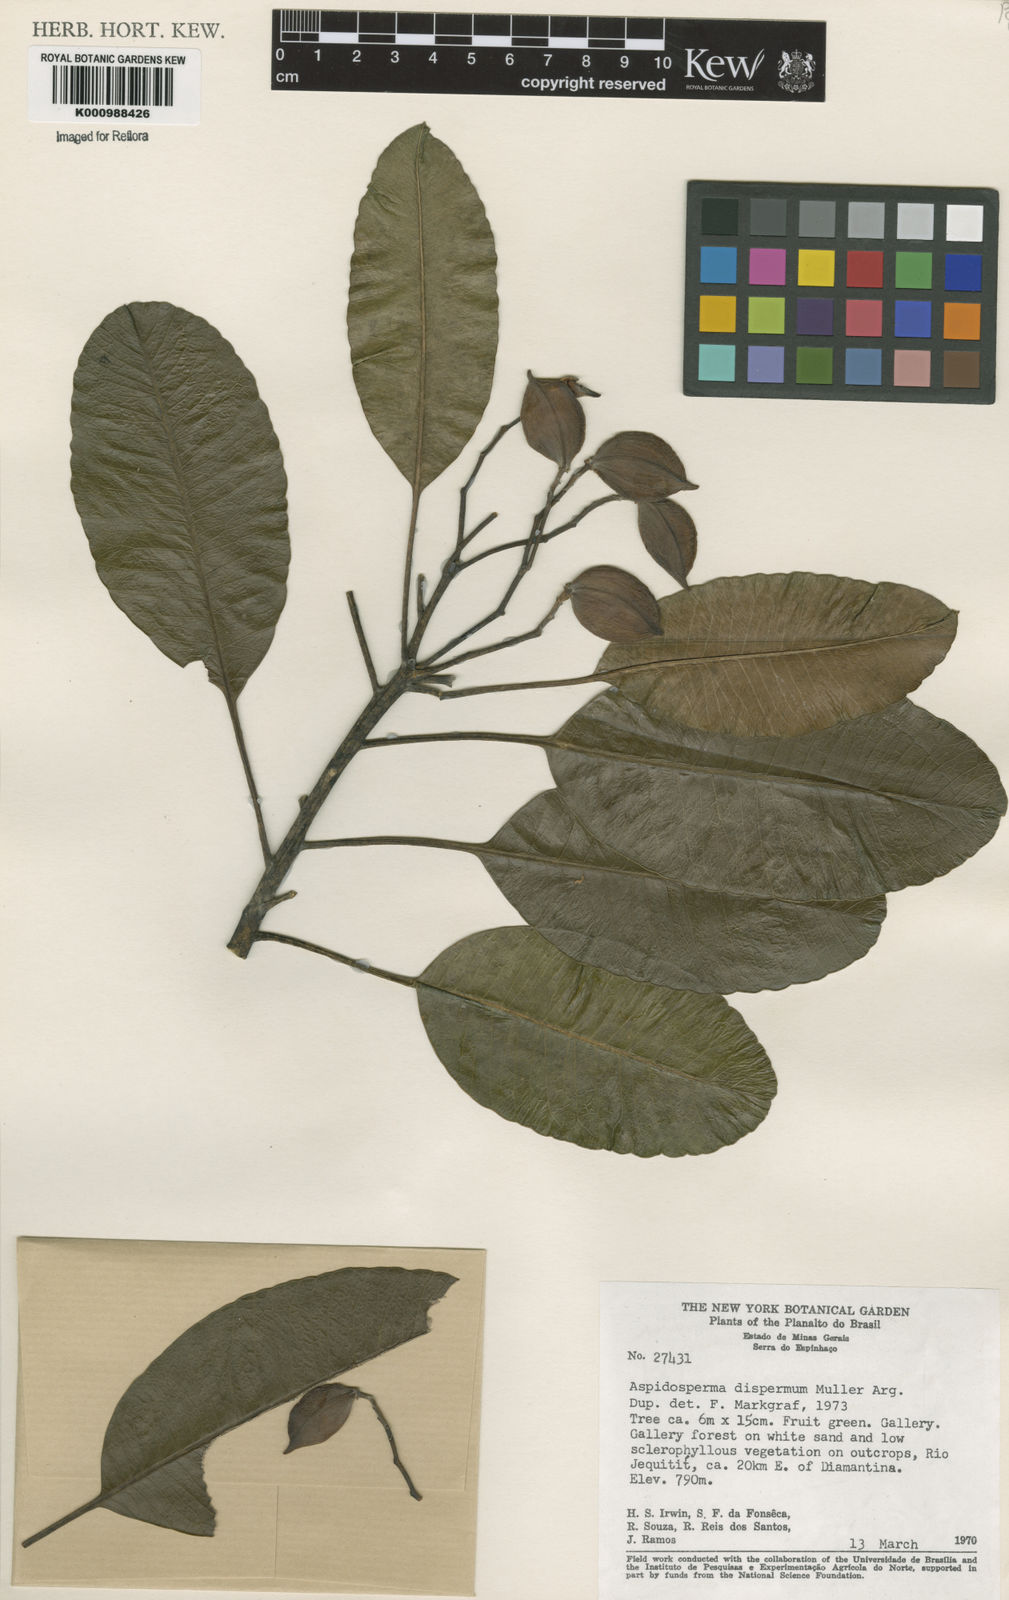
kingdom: Plantae
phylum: Tracheophyta
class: Magnoliopsida
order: Gentianales
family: Apocynaceae
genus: Aspidosperma
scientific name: Aspidosperma
